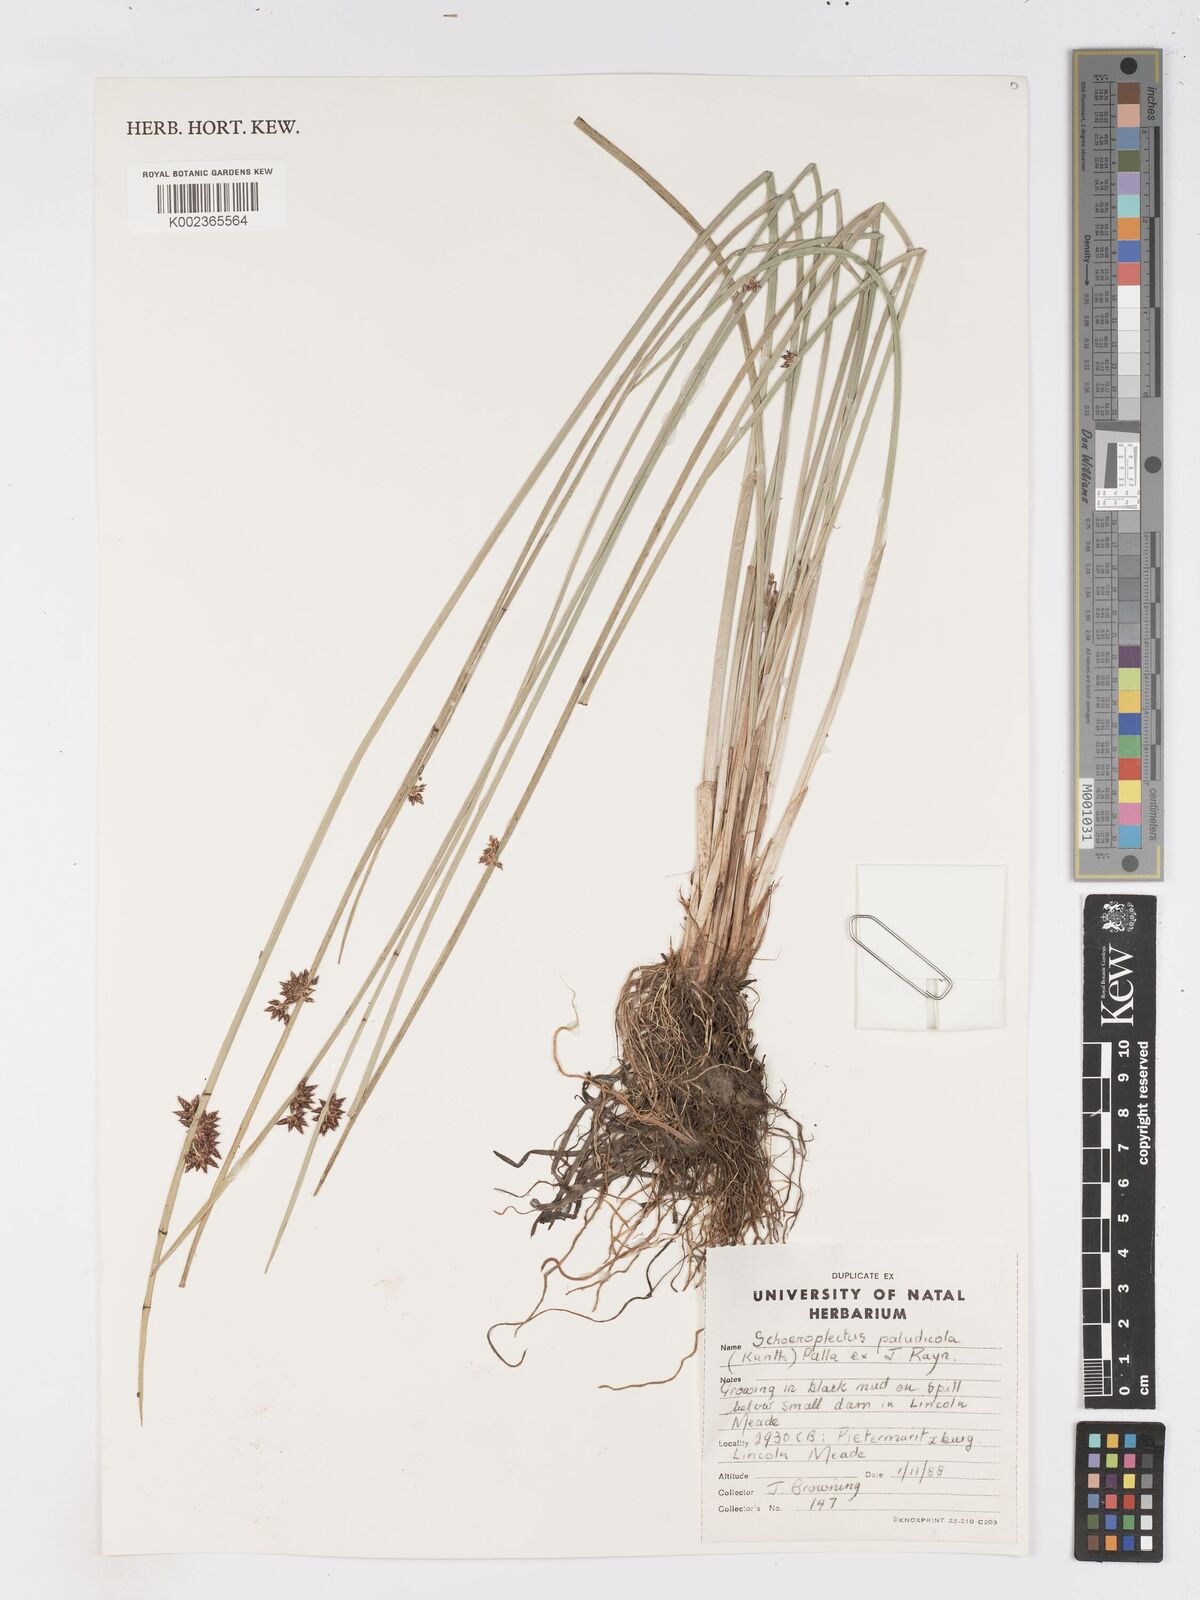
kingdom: Plantae
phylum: Tracheophyta
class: Liliopsida
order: Poales
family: Cyperaceae
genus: Schoenoplectiella
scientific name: Schoenoplectiella paludicola
